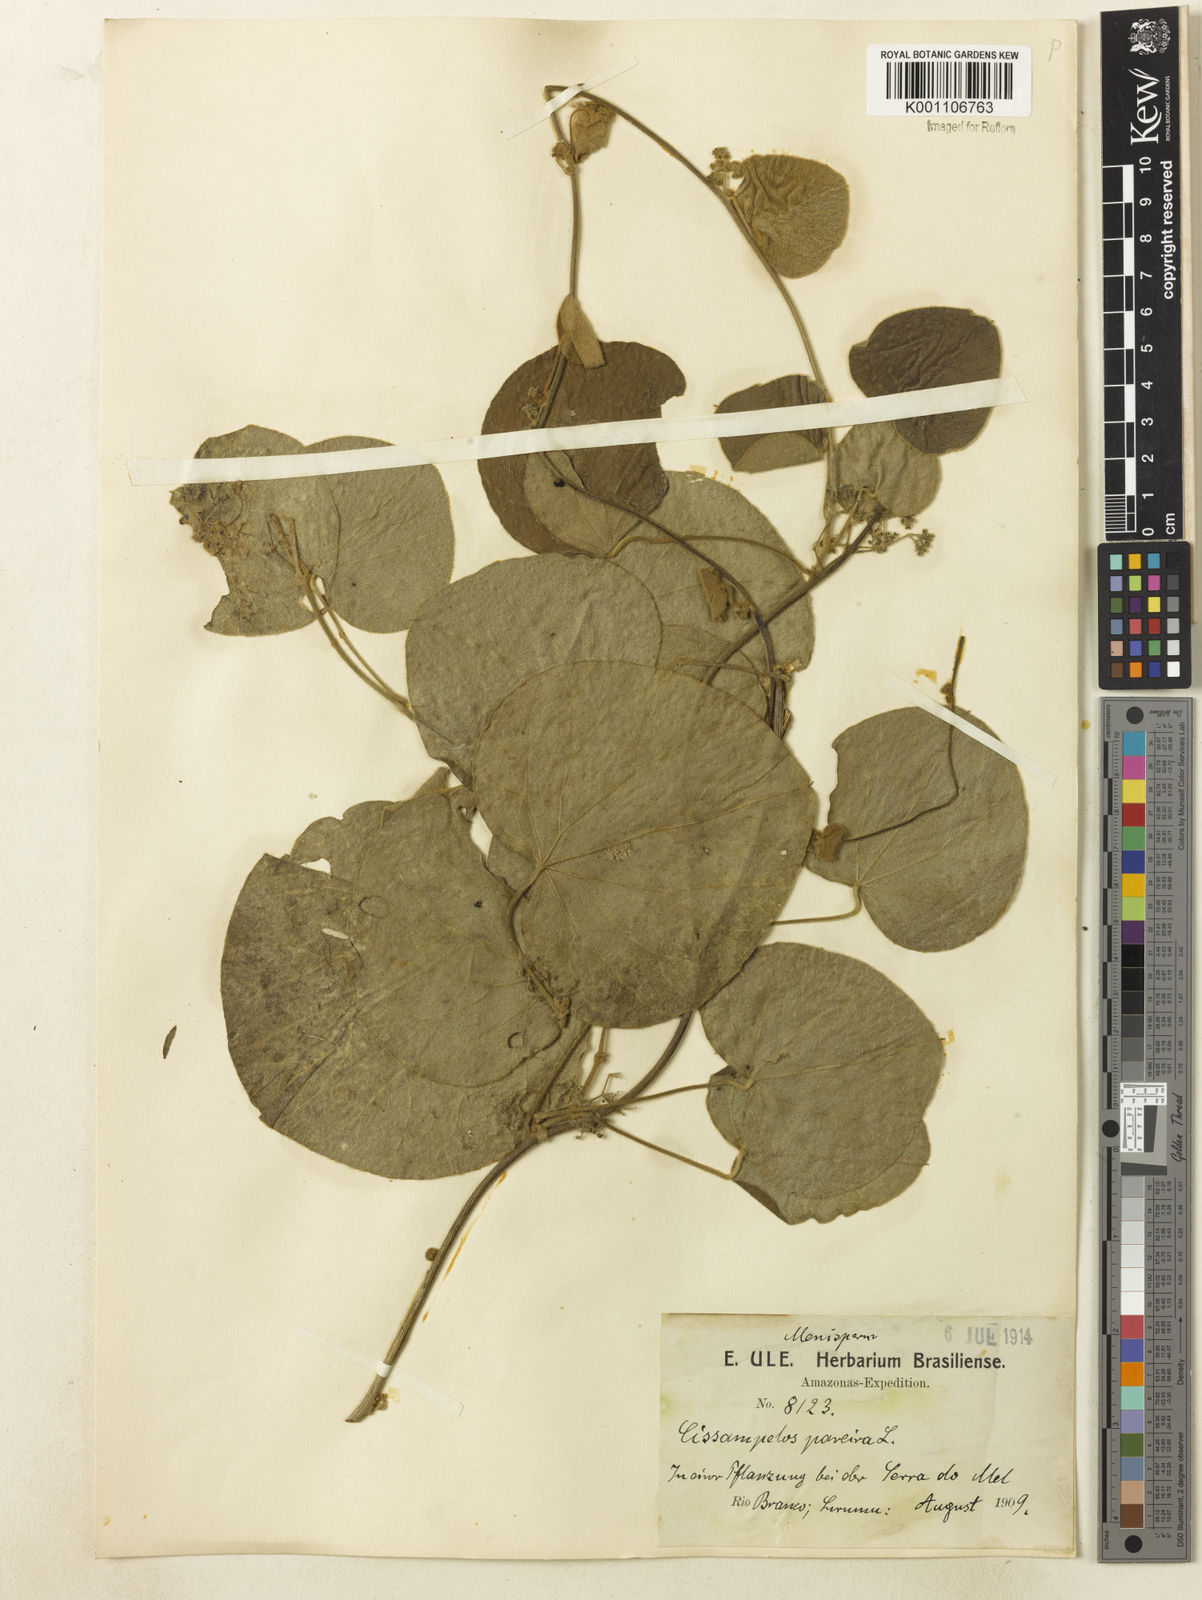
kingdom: Plantae
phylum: Tracheophyta
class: Magnoliopsida
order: Ranunculales
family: Menispermaceae
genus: Cissampelos
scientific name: Cissampelos pareira
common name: Velvetleaf
